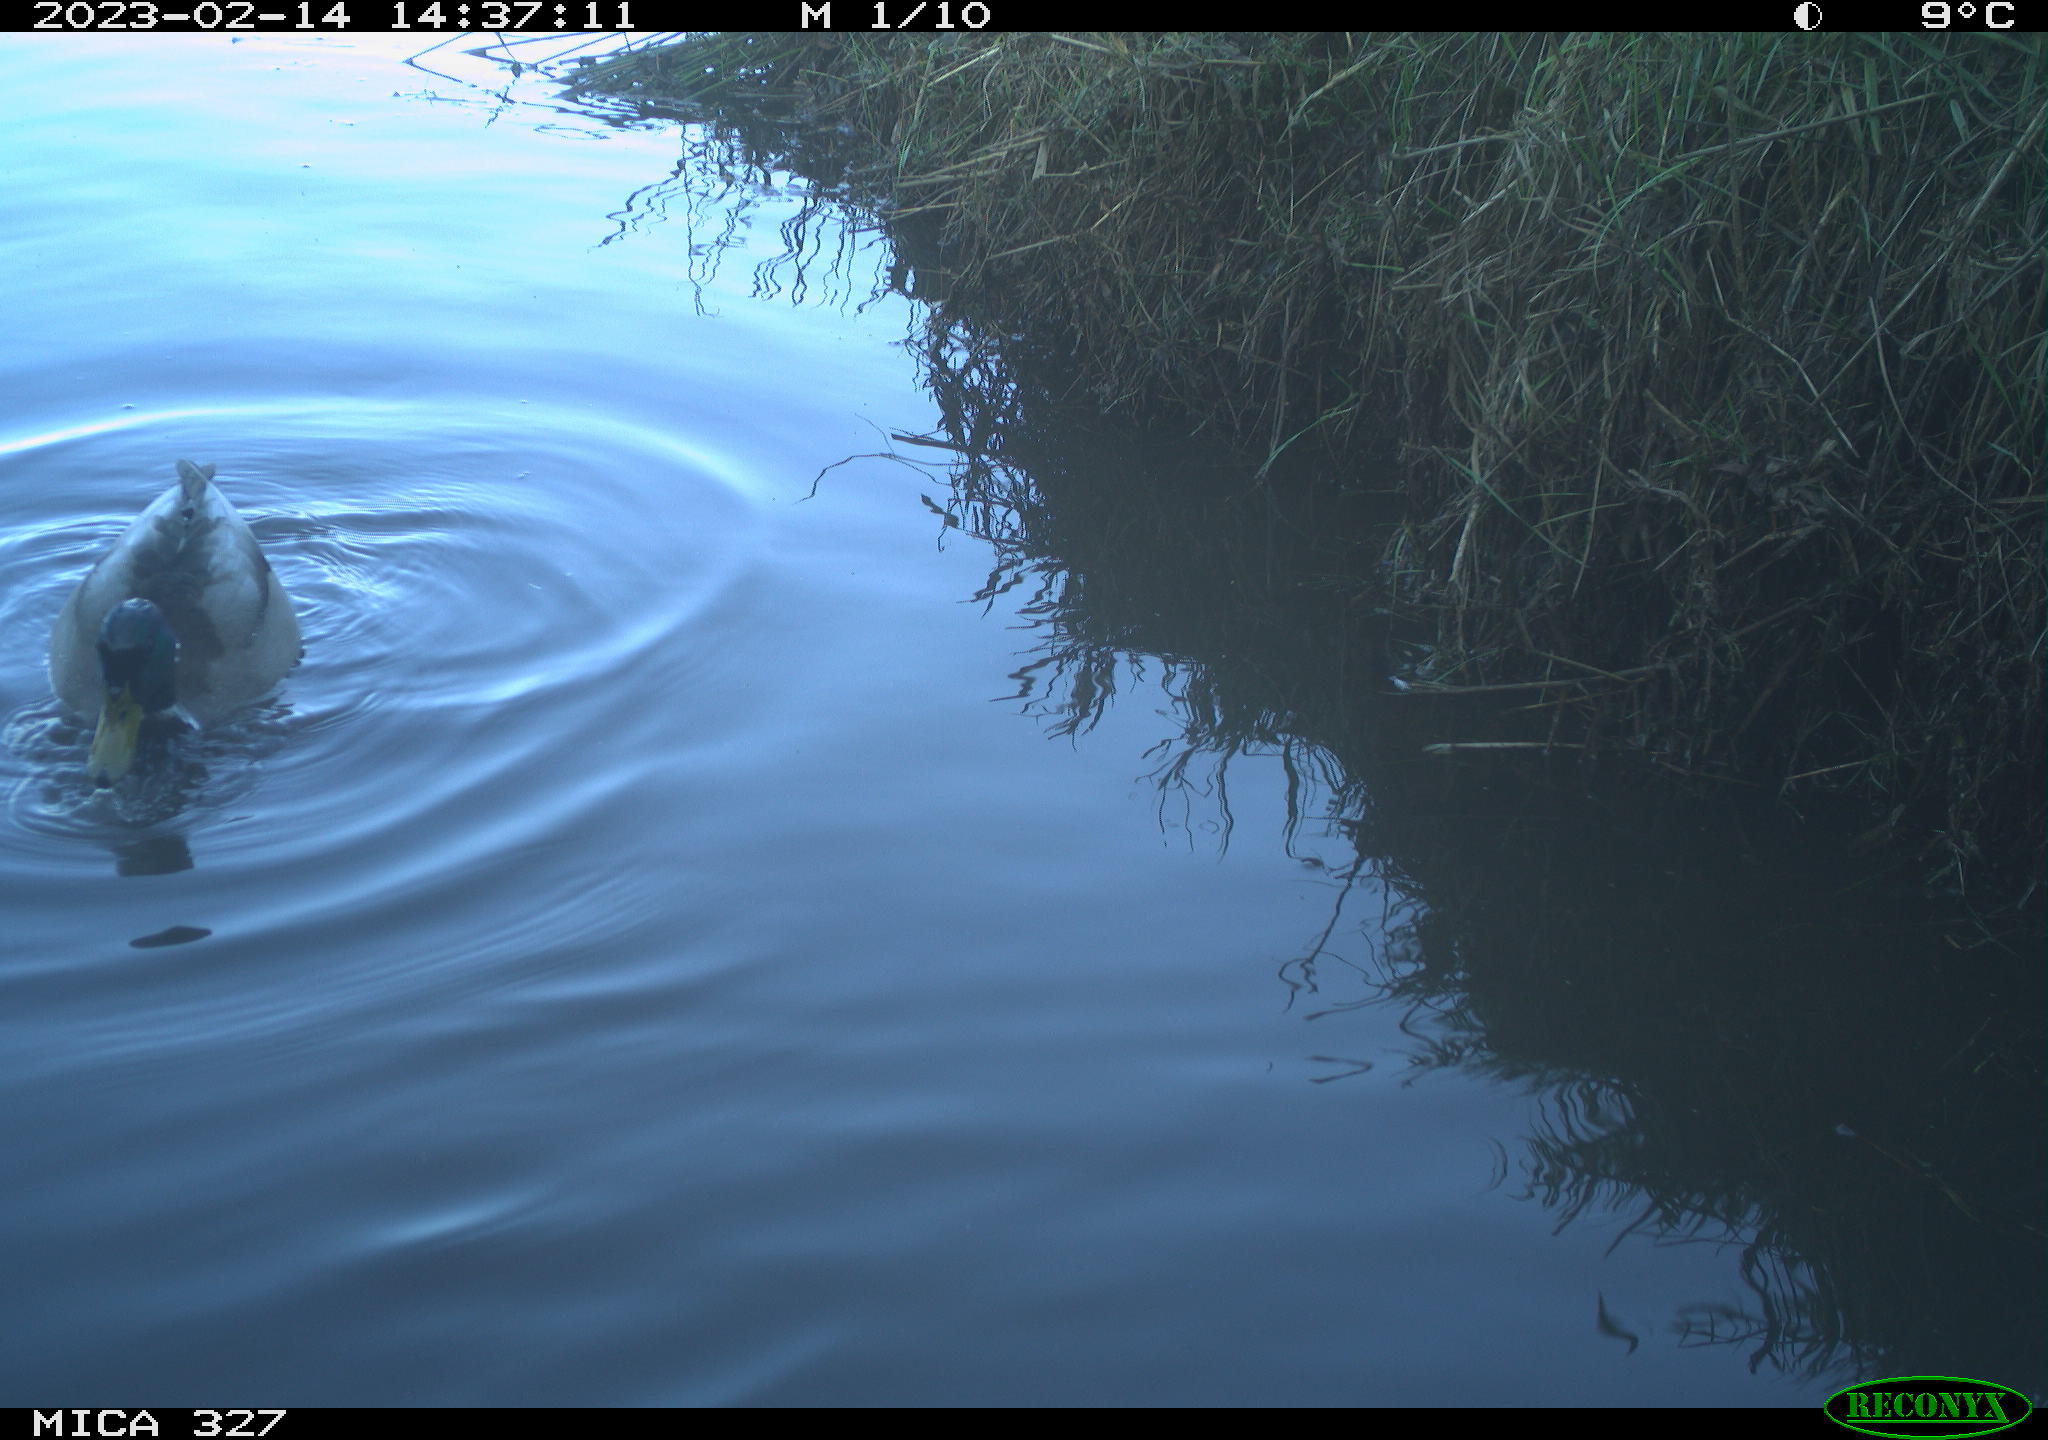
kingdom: Animalia
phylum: Chordata
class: Aves
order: Anseriformes
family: Anatidae
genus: Anas
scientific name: Anas
